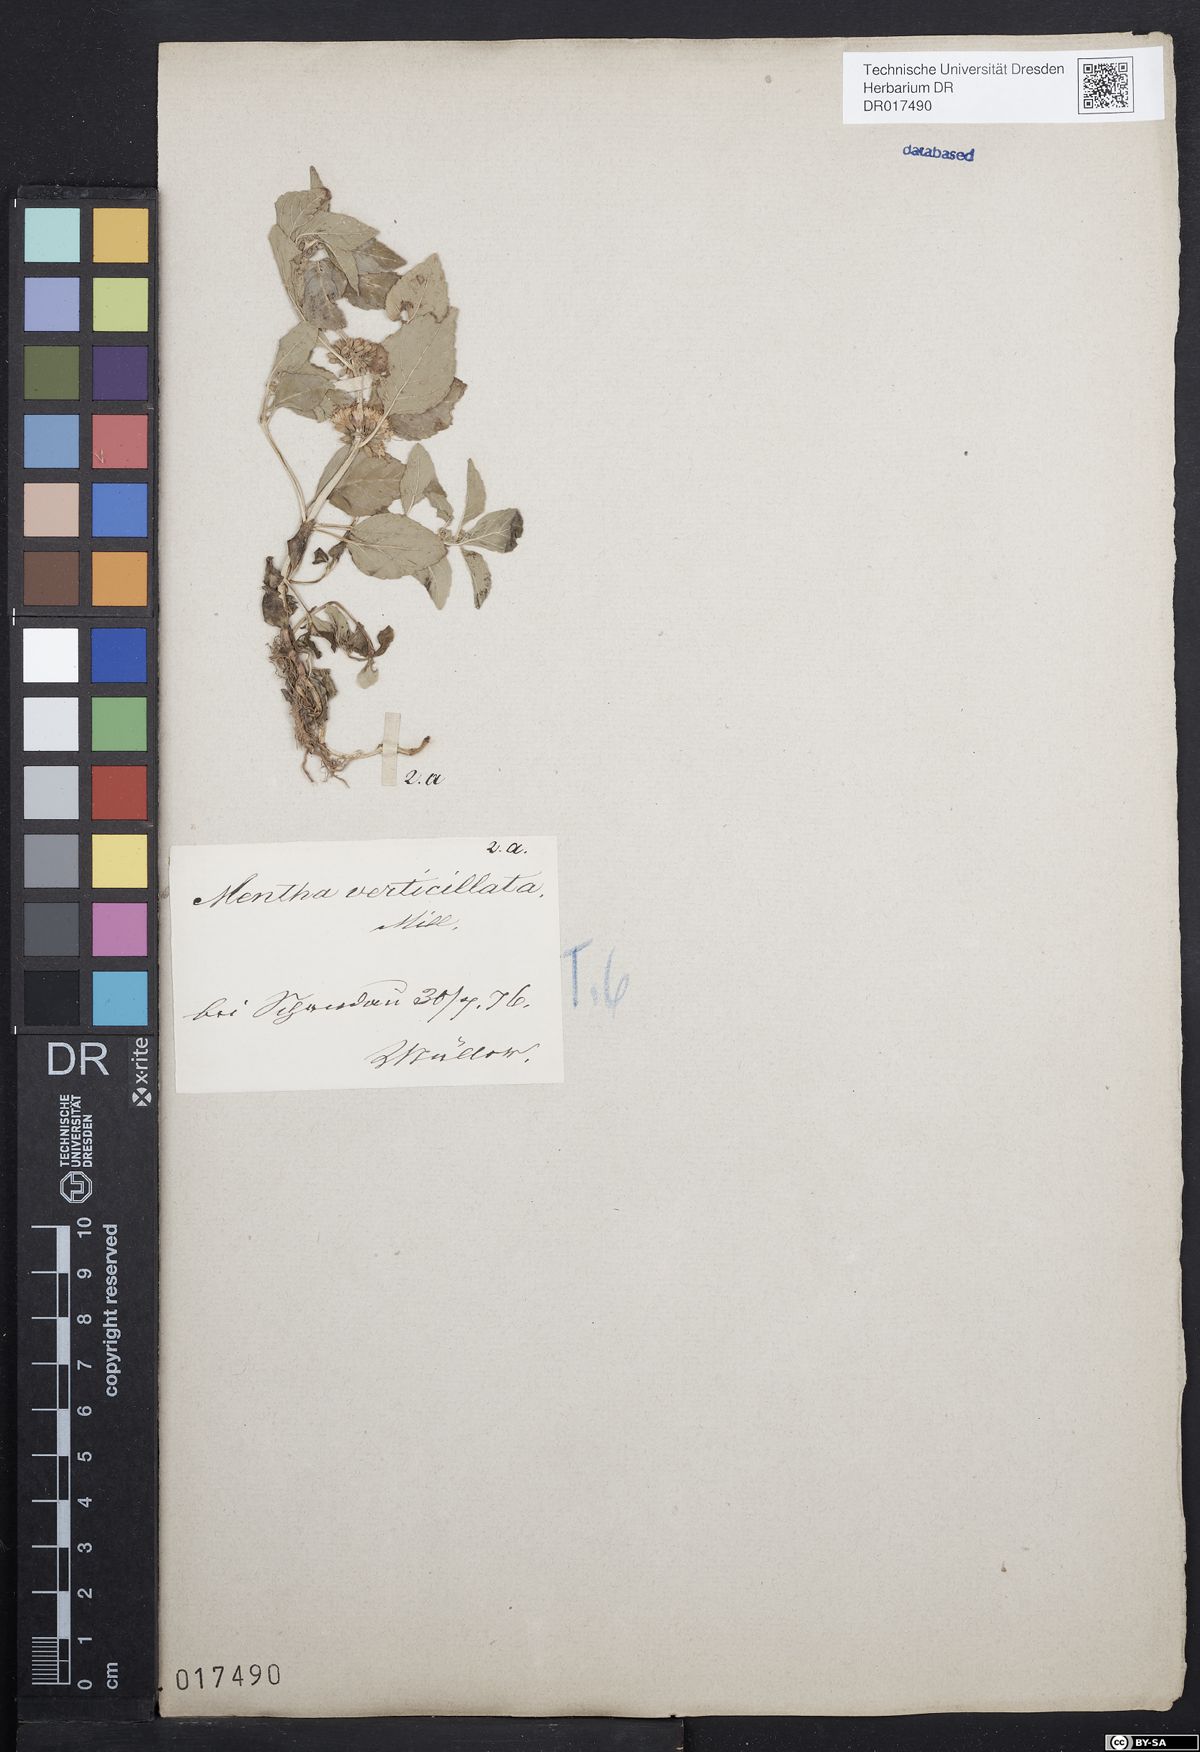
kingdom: Plantae
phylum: Tracheophyta
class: Magnoliopsida
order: Lamiales
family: Lamiaceae
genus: Mentha
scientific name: Mentha verticillata
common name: Mint
